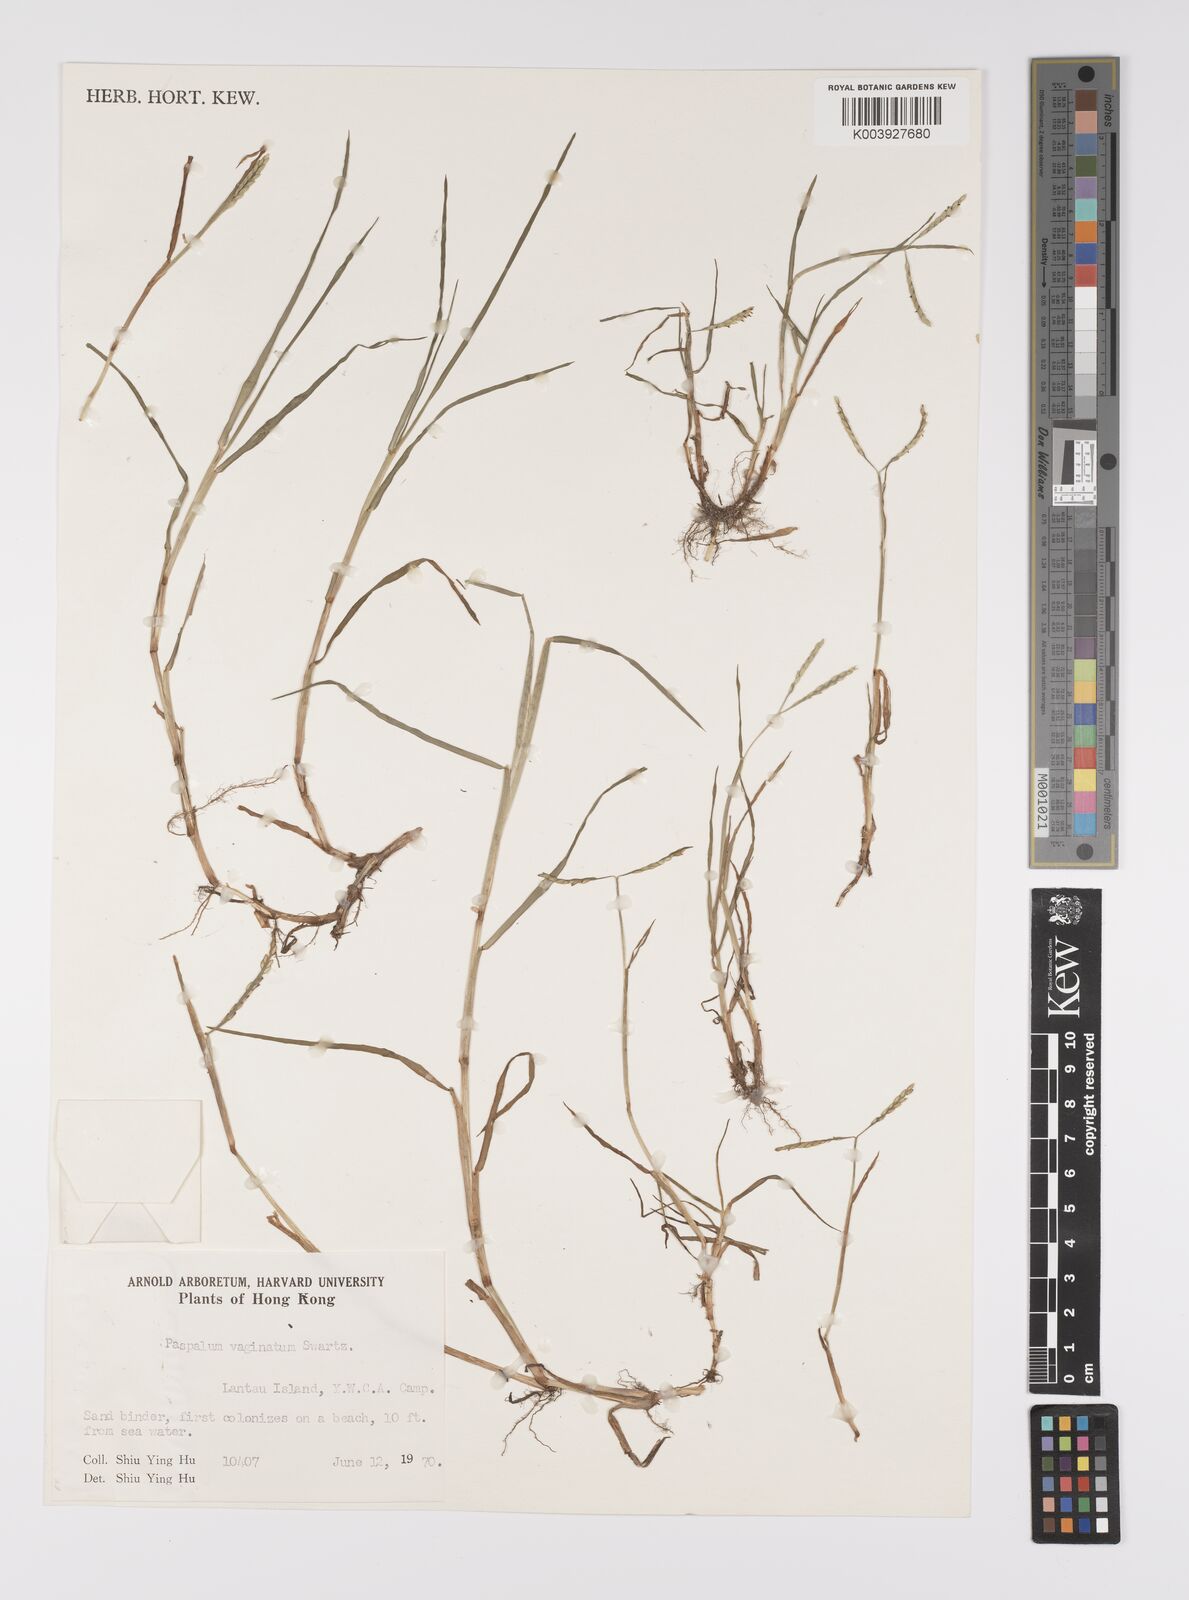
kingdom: Plantae
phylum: Tracheophyta
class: Liliopsida
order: Poales
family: Poaceae
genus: Paspalum
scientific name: Paspalum vaginatum
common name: Seashore paspalum
